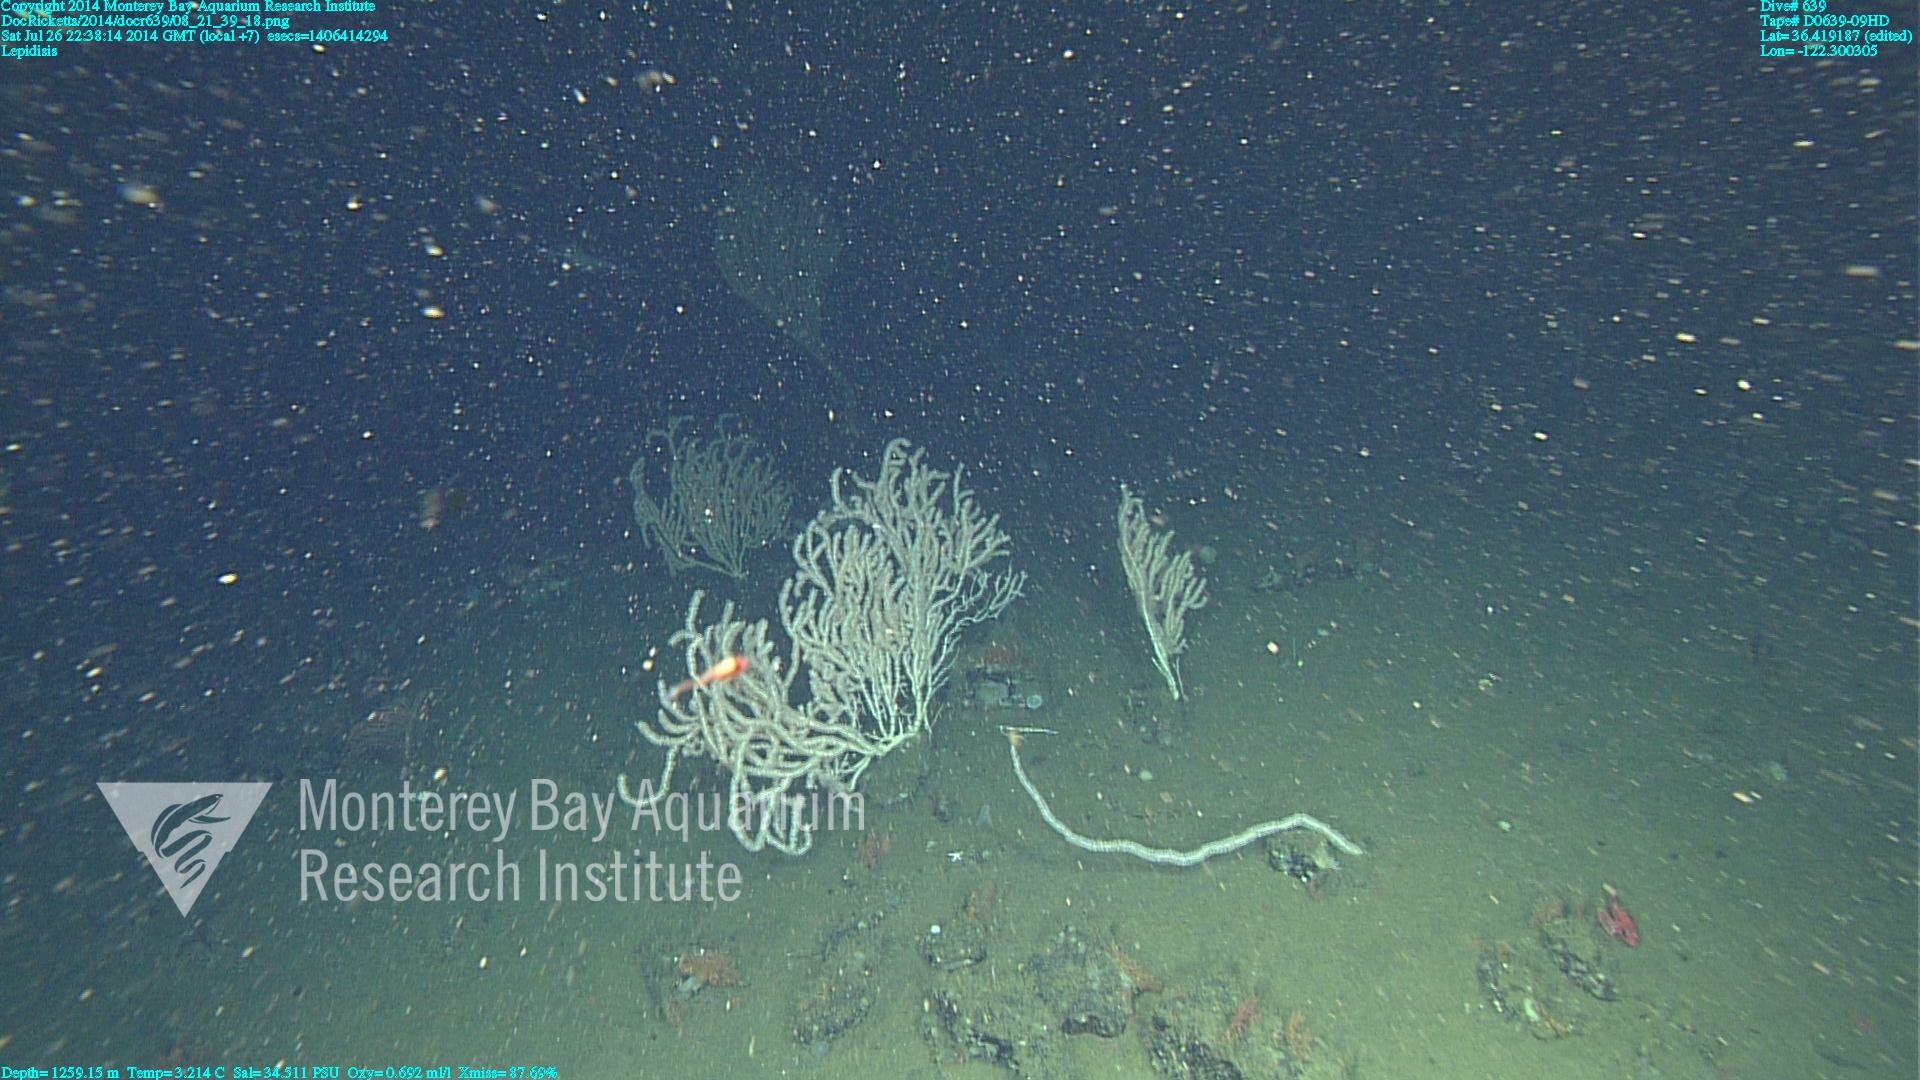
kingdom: Animalia
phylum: Cnidaria
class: Anthozoa
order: Scleralcyonacea
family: Keratoisididae
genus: Lepidisis
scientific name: Lepidisis
